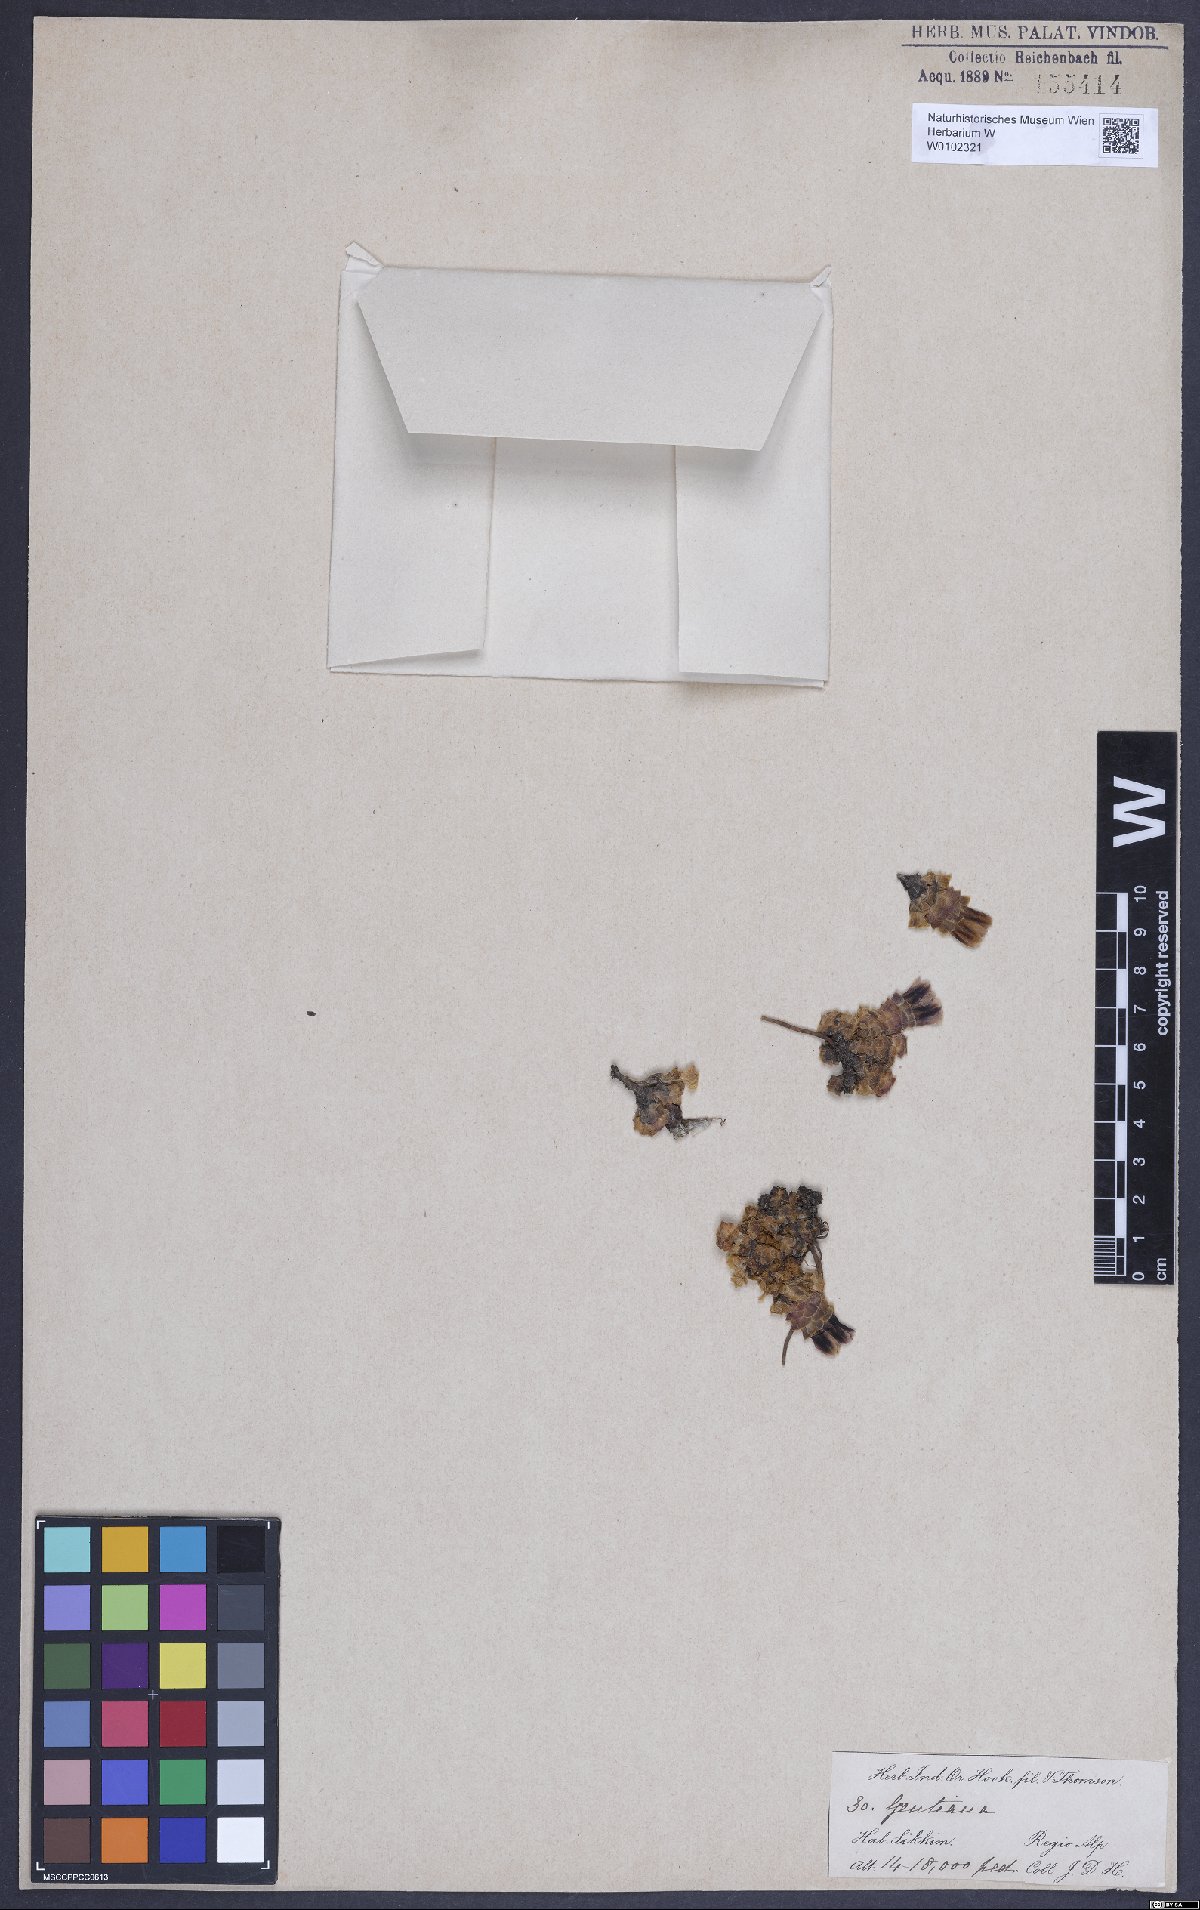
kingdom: Plantae
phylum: Tracheophyta
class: Magnoliopsida
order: Gentianales
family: Gentianaceae
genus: Gentiana
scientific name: Gentiana emodi
